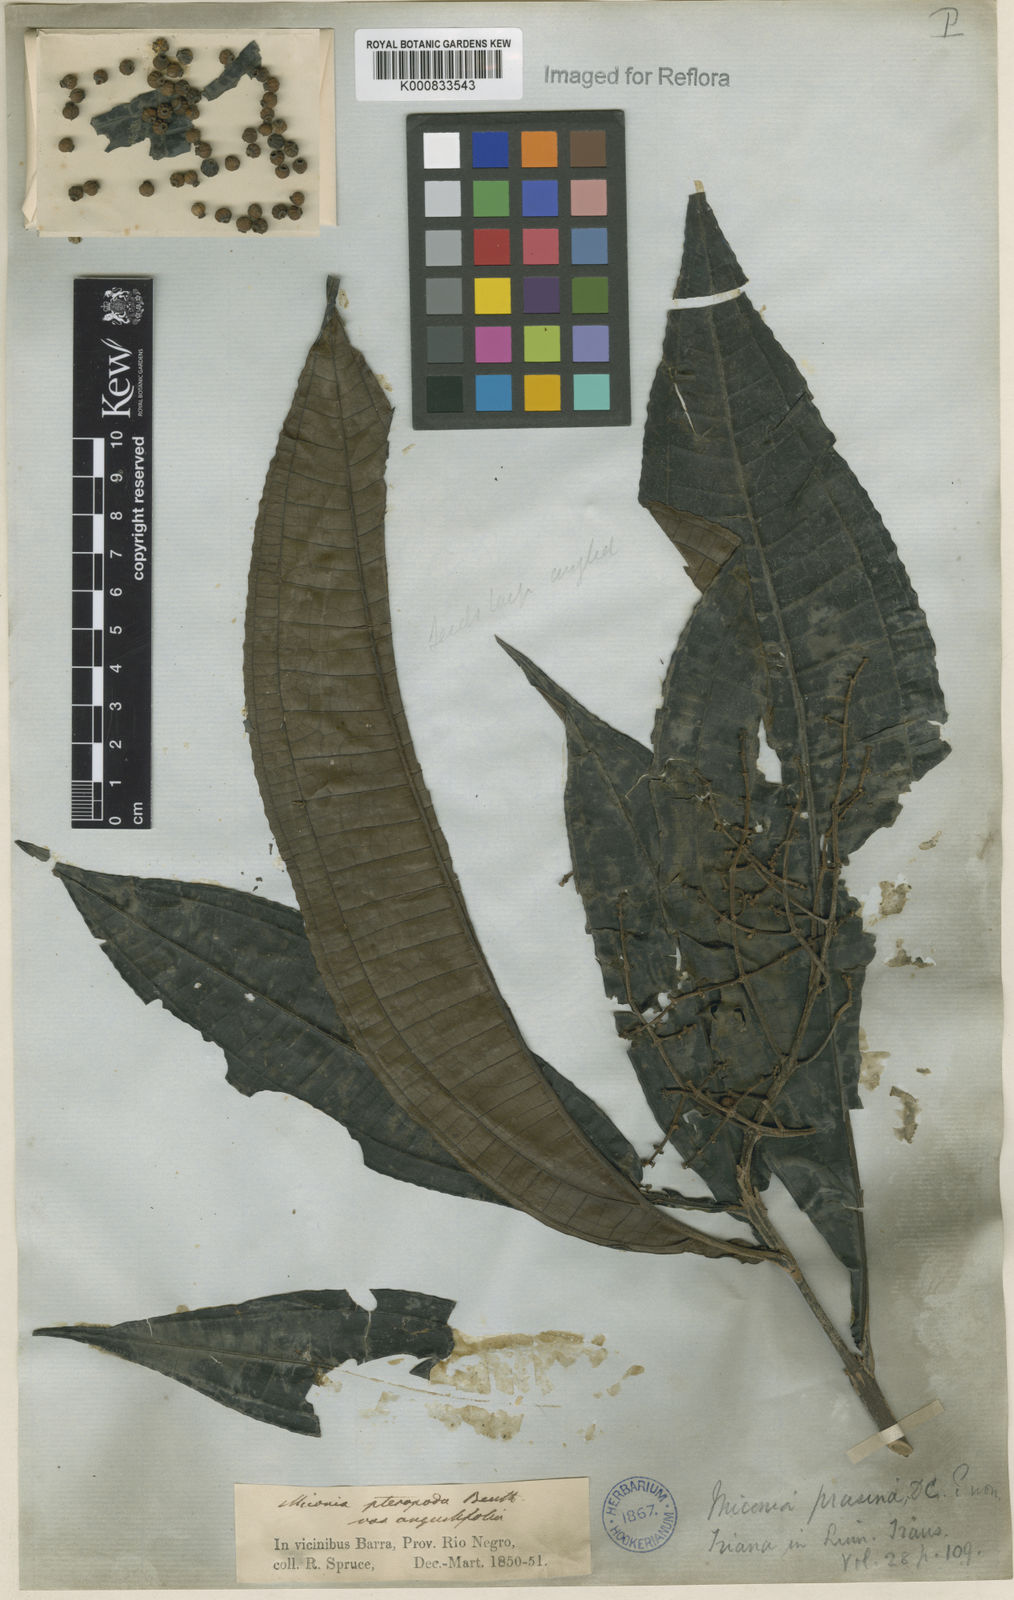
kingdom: Plantae
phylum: Tracheophyta
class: Magnoliopsida
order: Myrtales
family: Melastomataceae
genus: Miconia
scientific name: Miconia prasina
